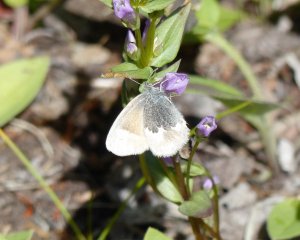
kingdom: Animalia
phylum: Arthropoda
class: Insecta
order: Lepidoptera
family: Nymphalidae
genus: Coenonympha
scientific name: Coenonympha tullia
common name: Large Heath
